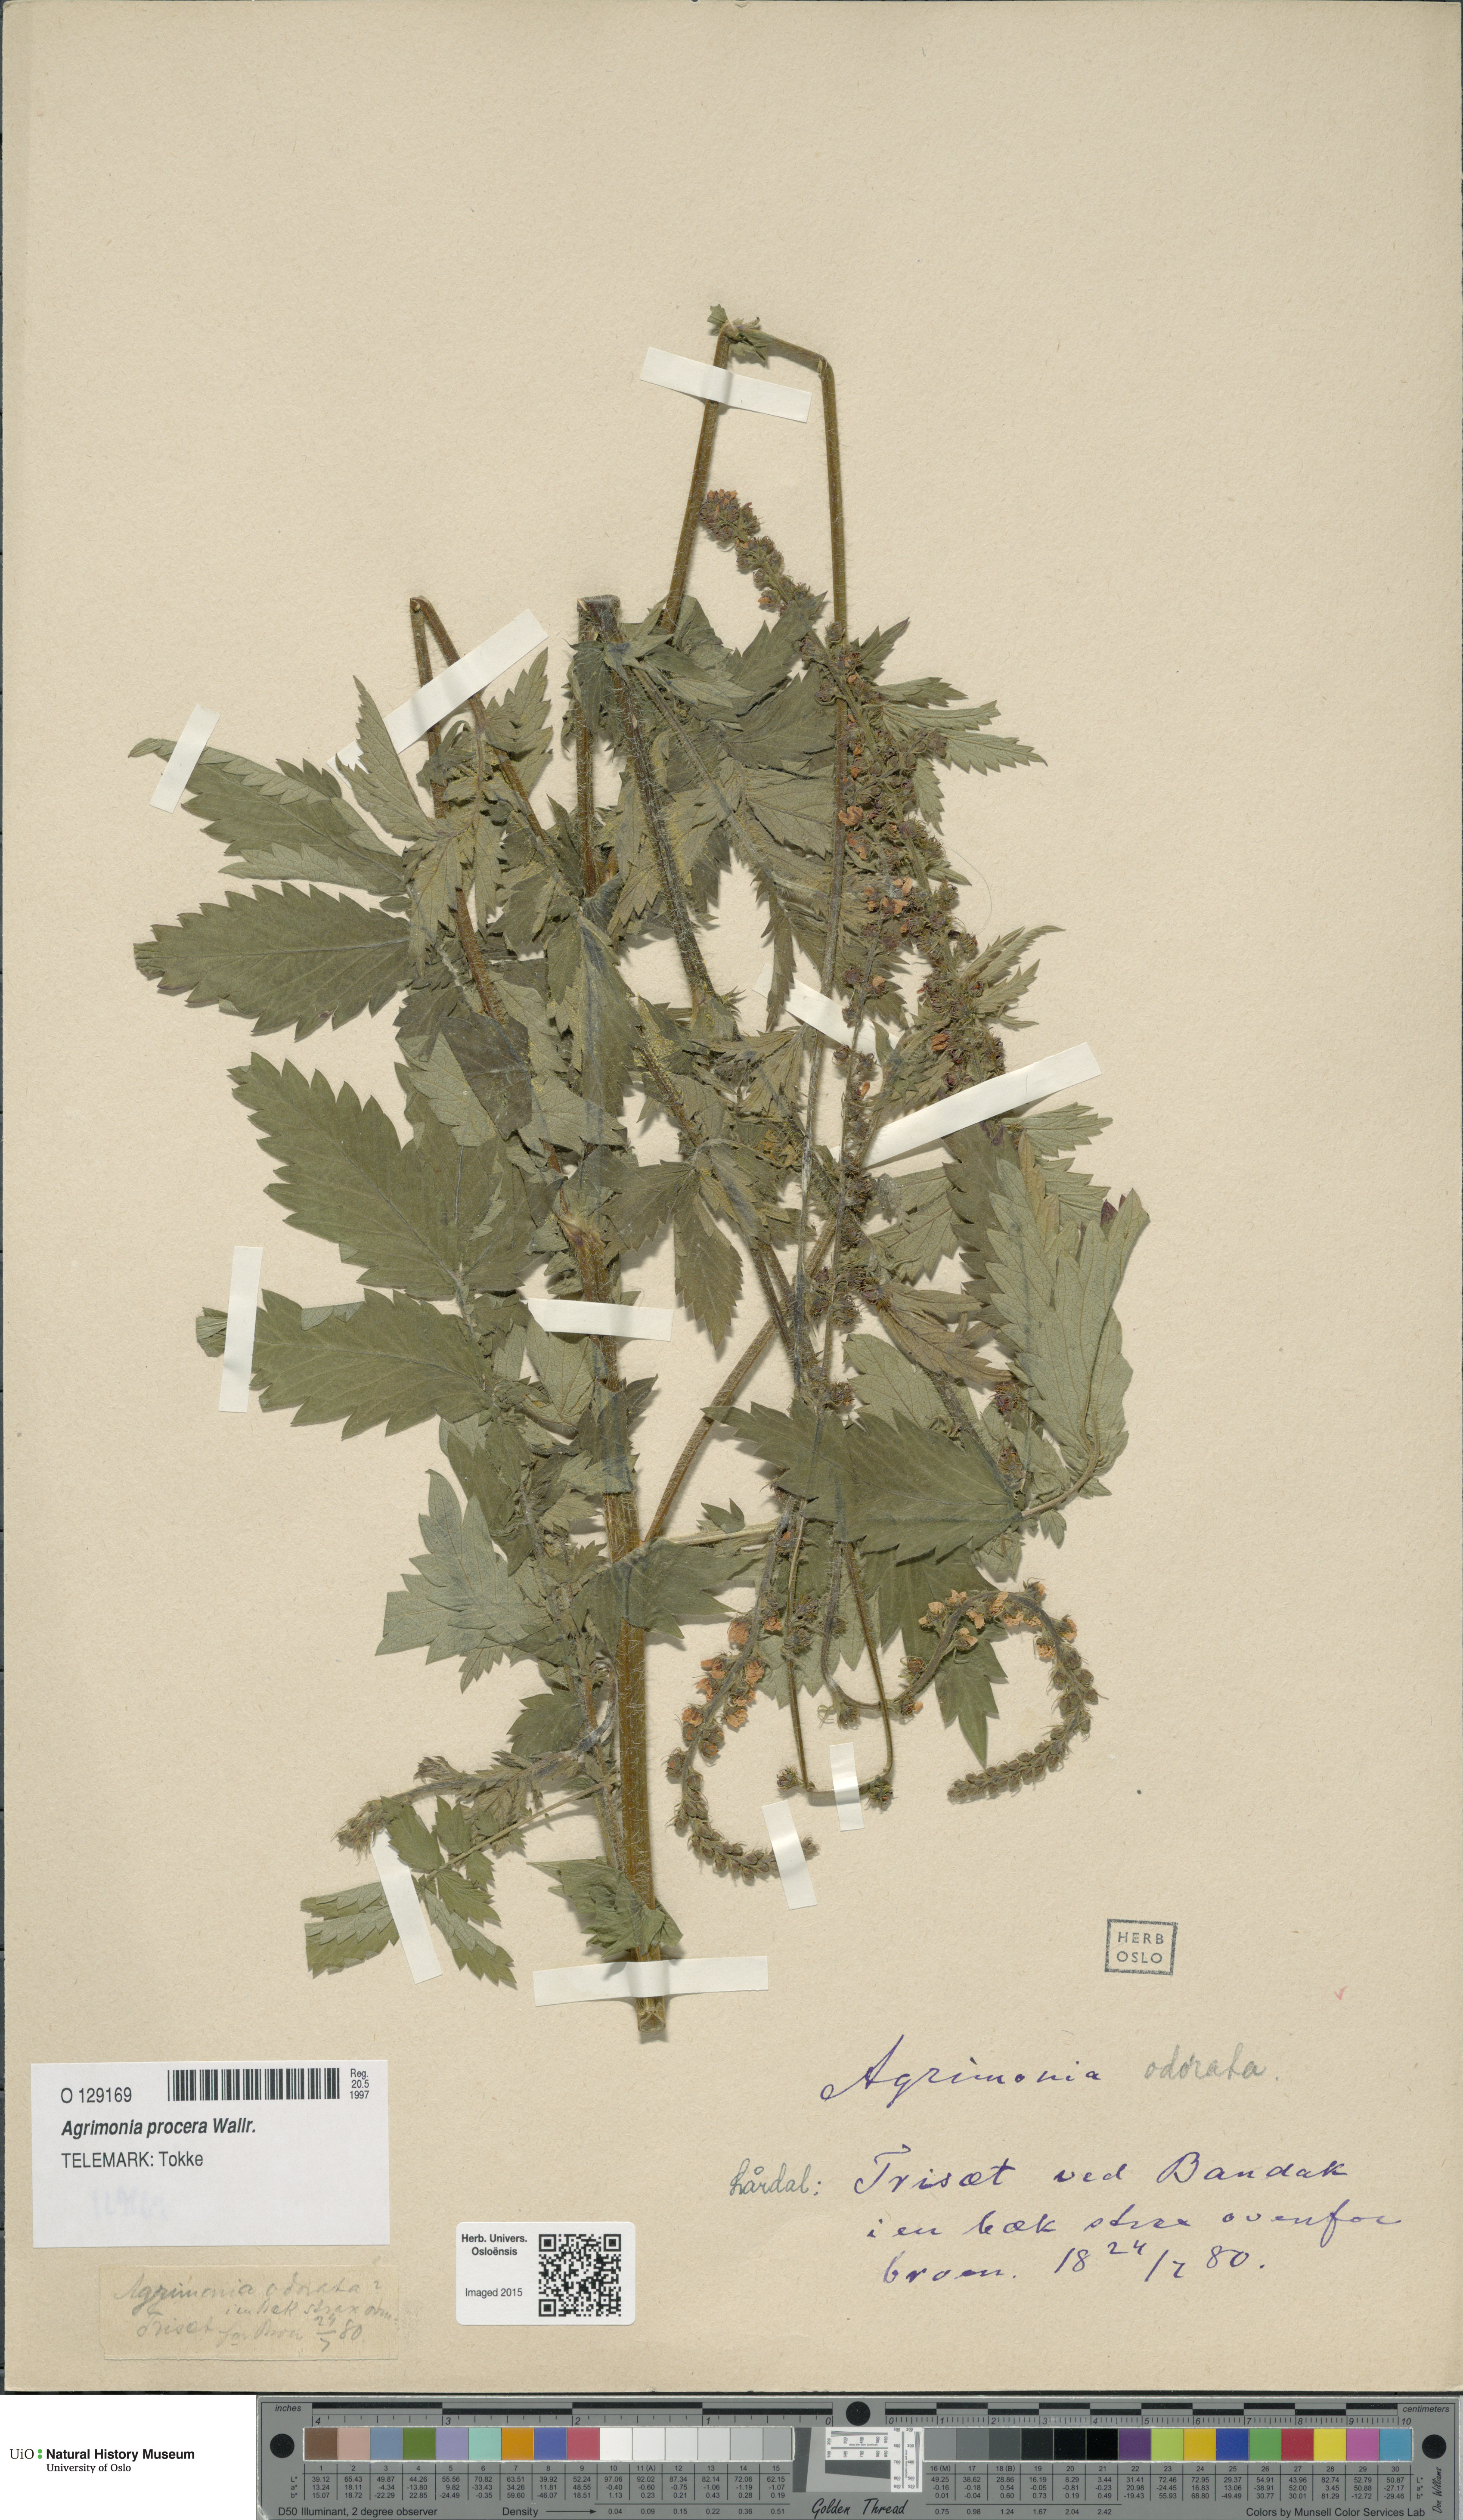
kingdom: Plantae
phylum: Tracheophyta
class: Magnoliopsida
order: Rosales
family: Rosaceae
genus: Agrimonia
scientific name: Agrimonia procera
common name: Fragrant agrimony
